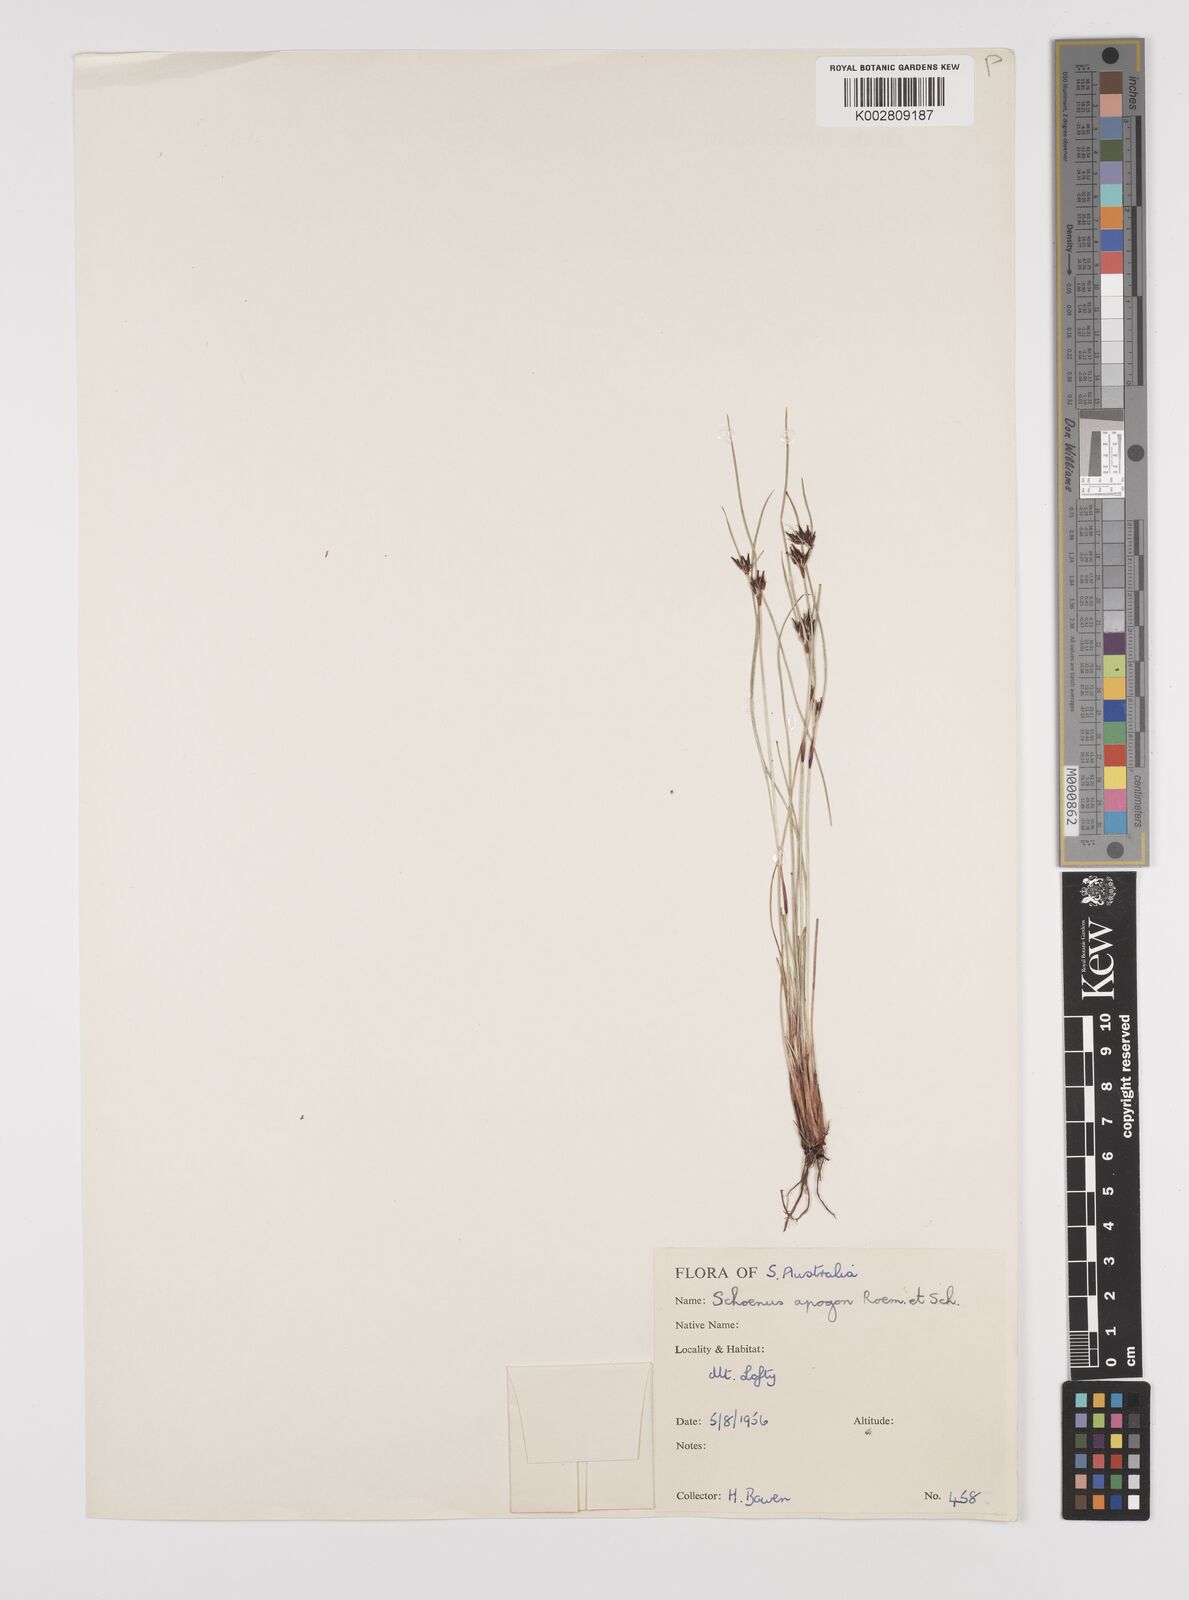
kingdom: Plantae
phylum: Tracheophyta
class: Liliopsida
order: Poales
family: Cyperaceae
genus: Schoenus
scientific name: Schoenus apogon
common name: Smooth bogrush
